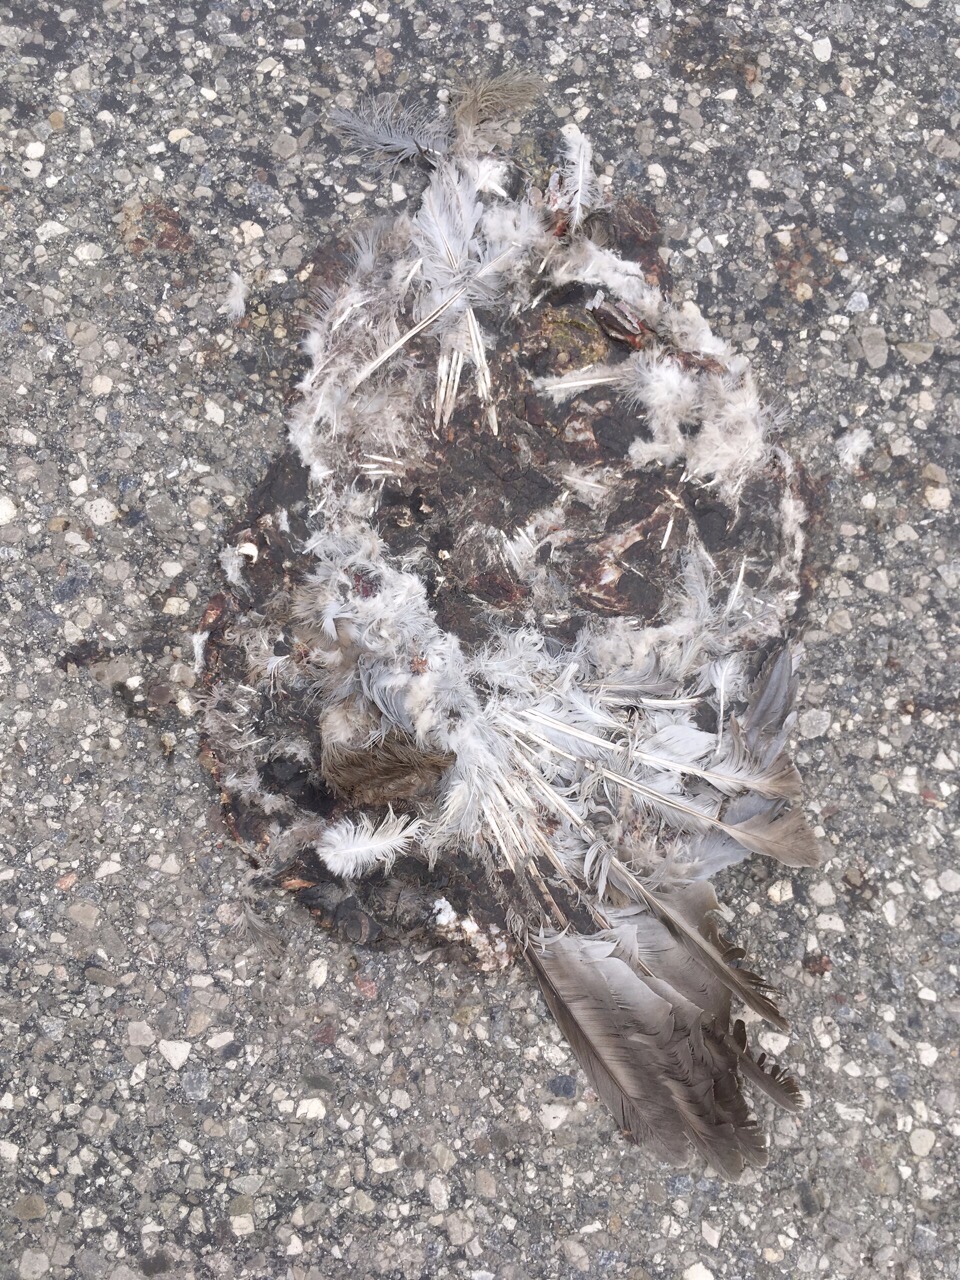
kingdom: Animalia
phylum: Chordata
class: Aves
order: Columbiformes
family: Columbidae
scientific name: Columbidae
